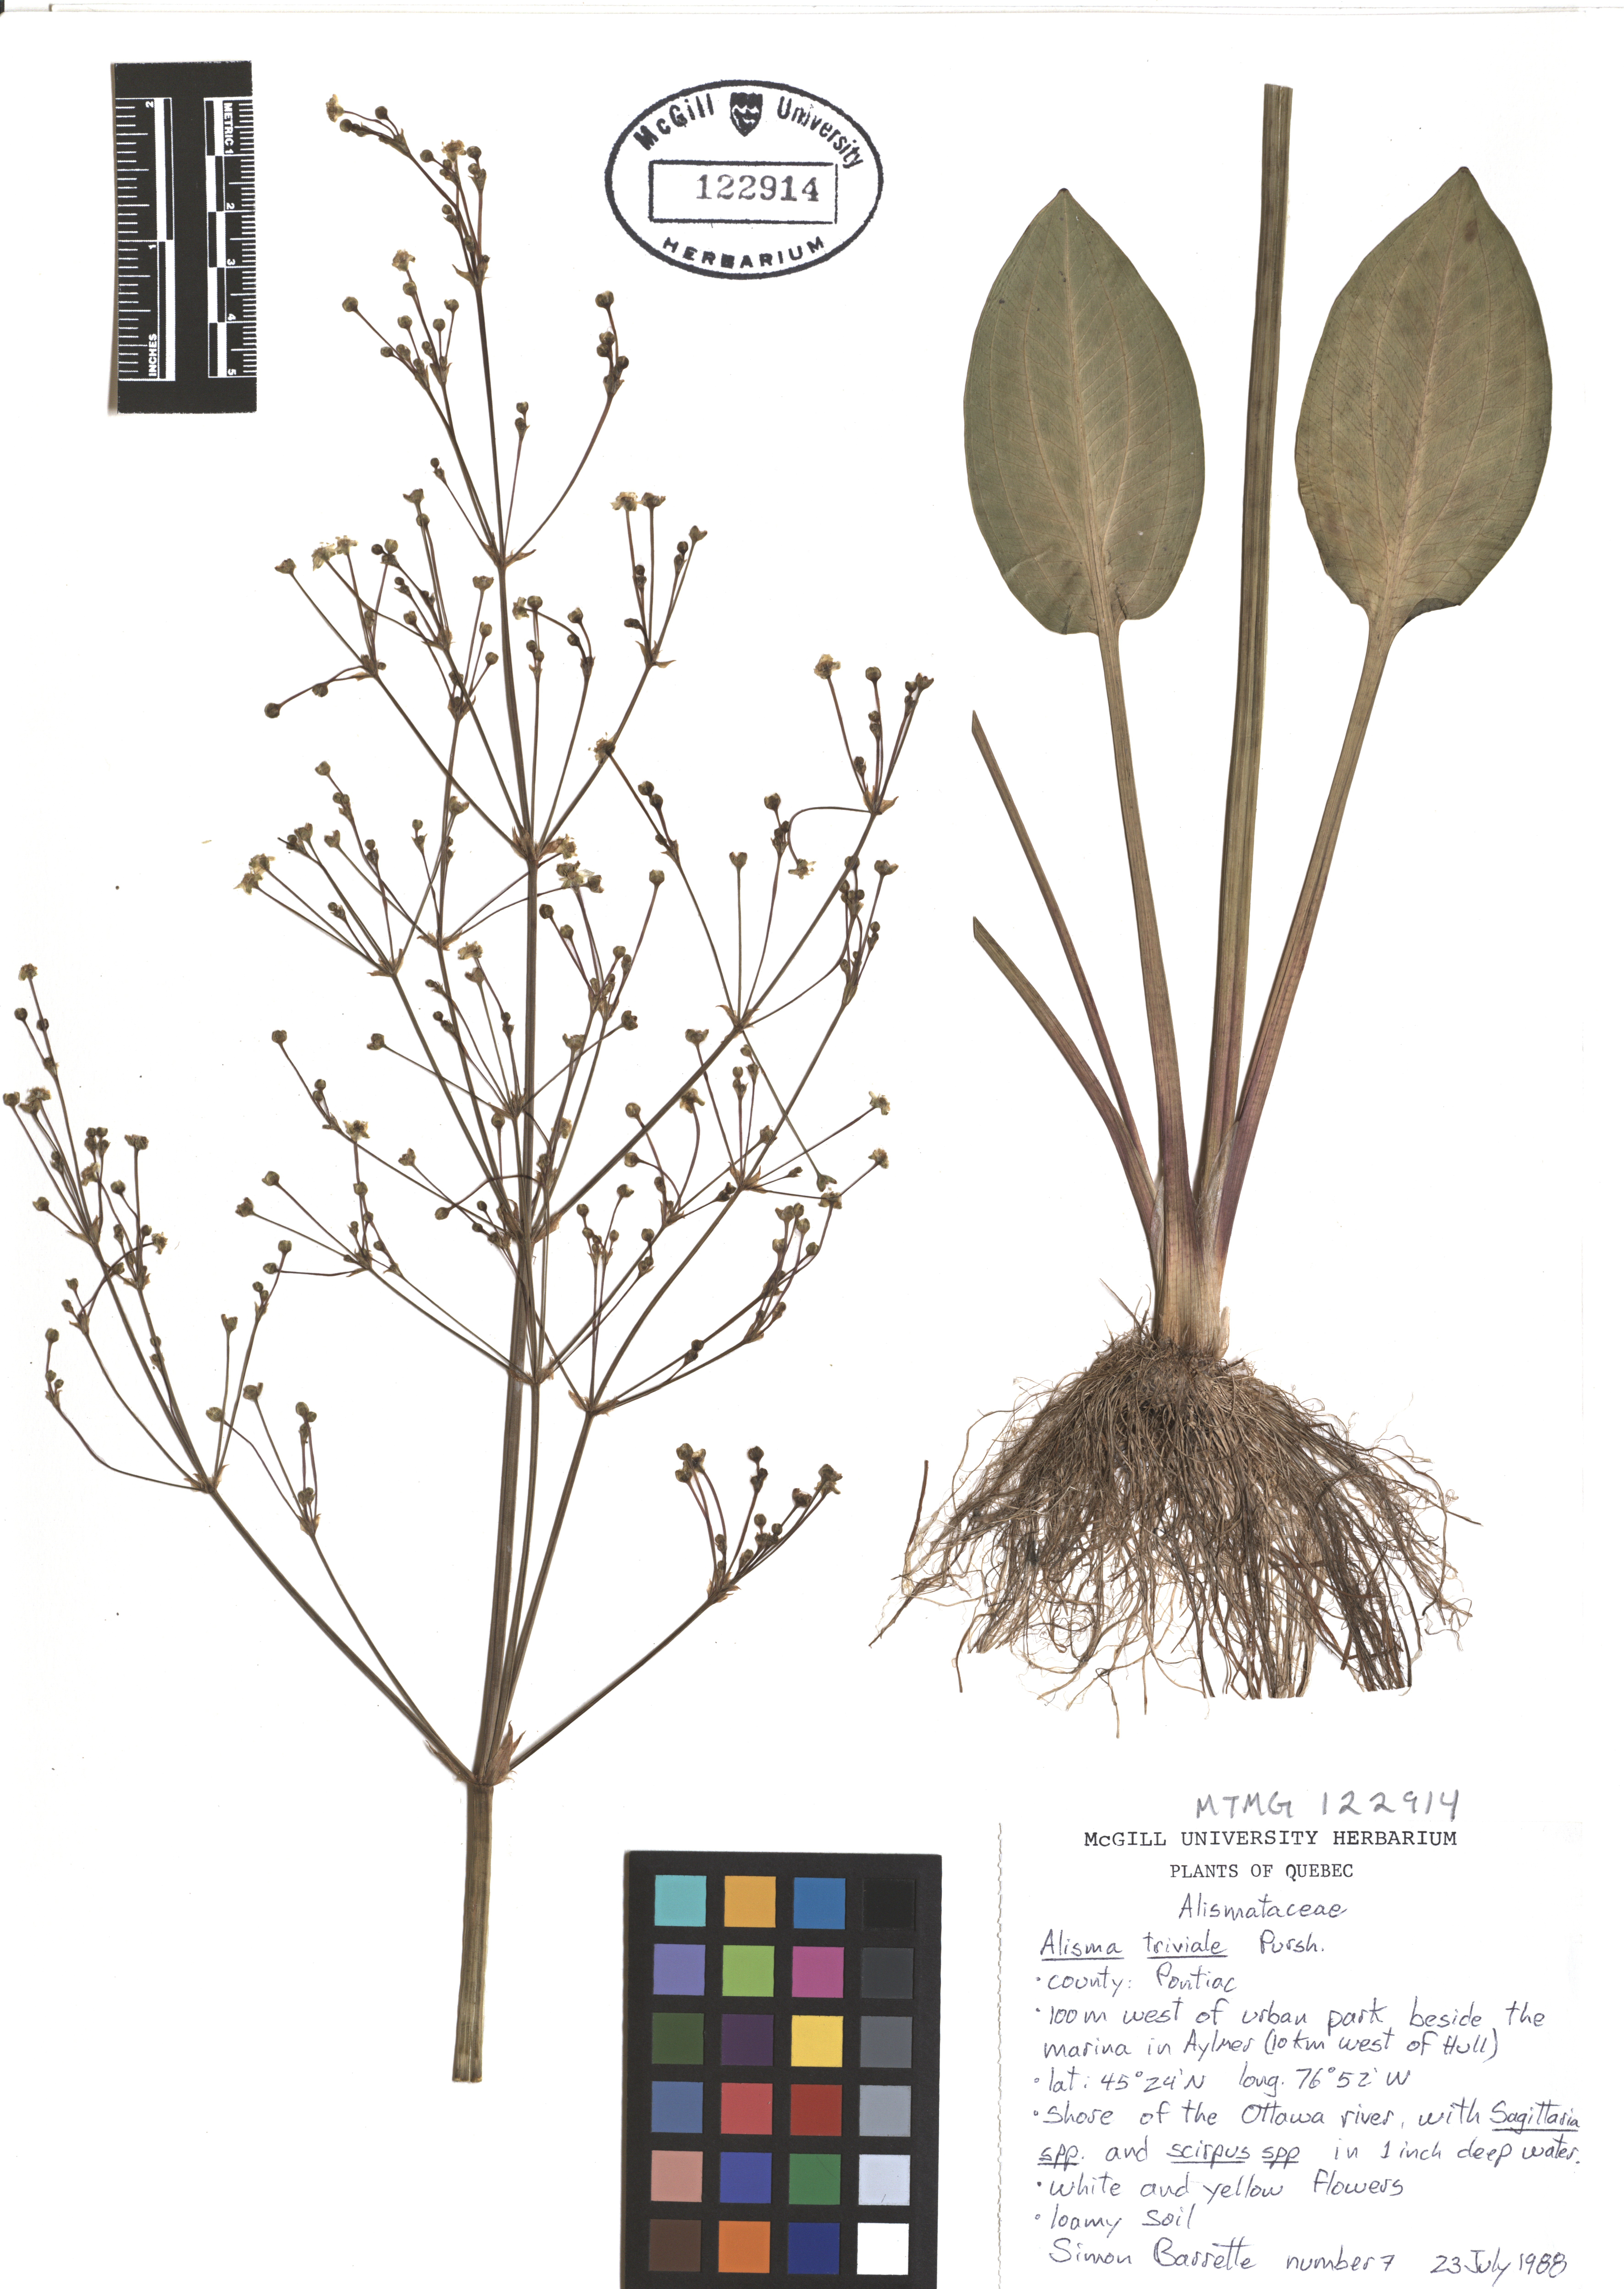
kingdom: Plantae
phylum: Tracheophyta
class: Liliopsida
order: Alismatales
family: Alismataceae
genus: Alisma
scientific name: Alisma triviale
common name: Northern water-plantain
